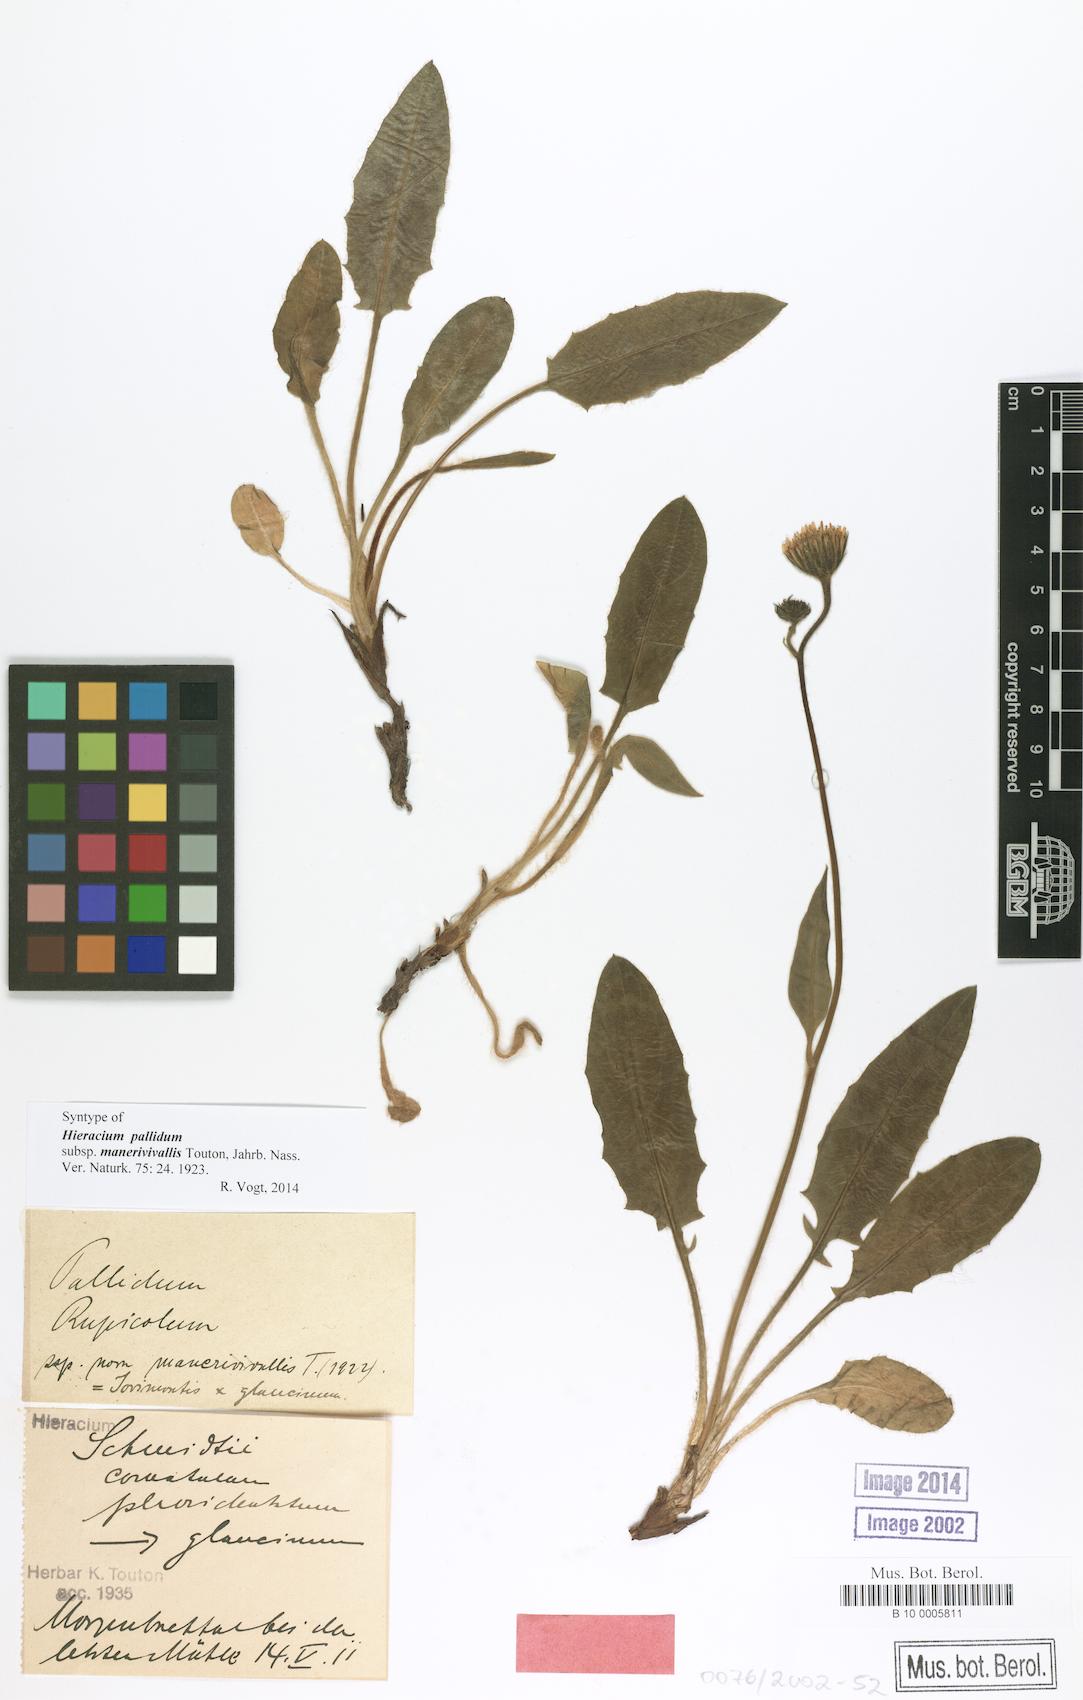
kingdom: Plantae
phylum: Tracheophyta
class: Magnoliopsida
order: Asterales
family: Asteraceae
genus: Hieracium
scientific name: Hieracium schmidtii
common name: Schmidt's hawkweed
